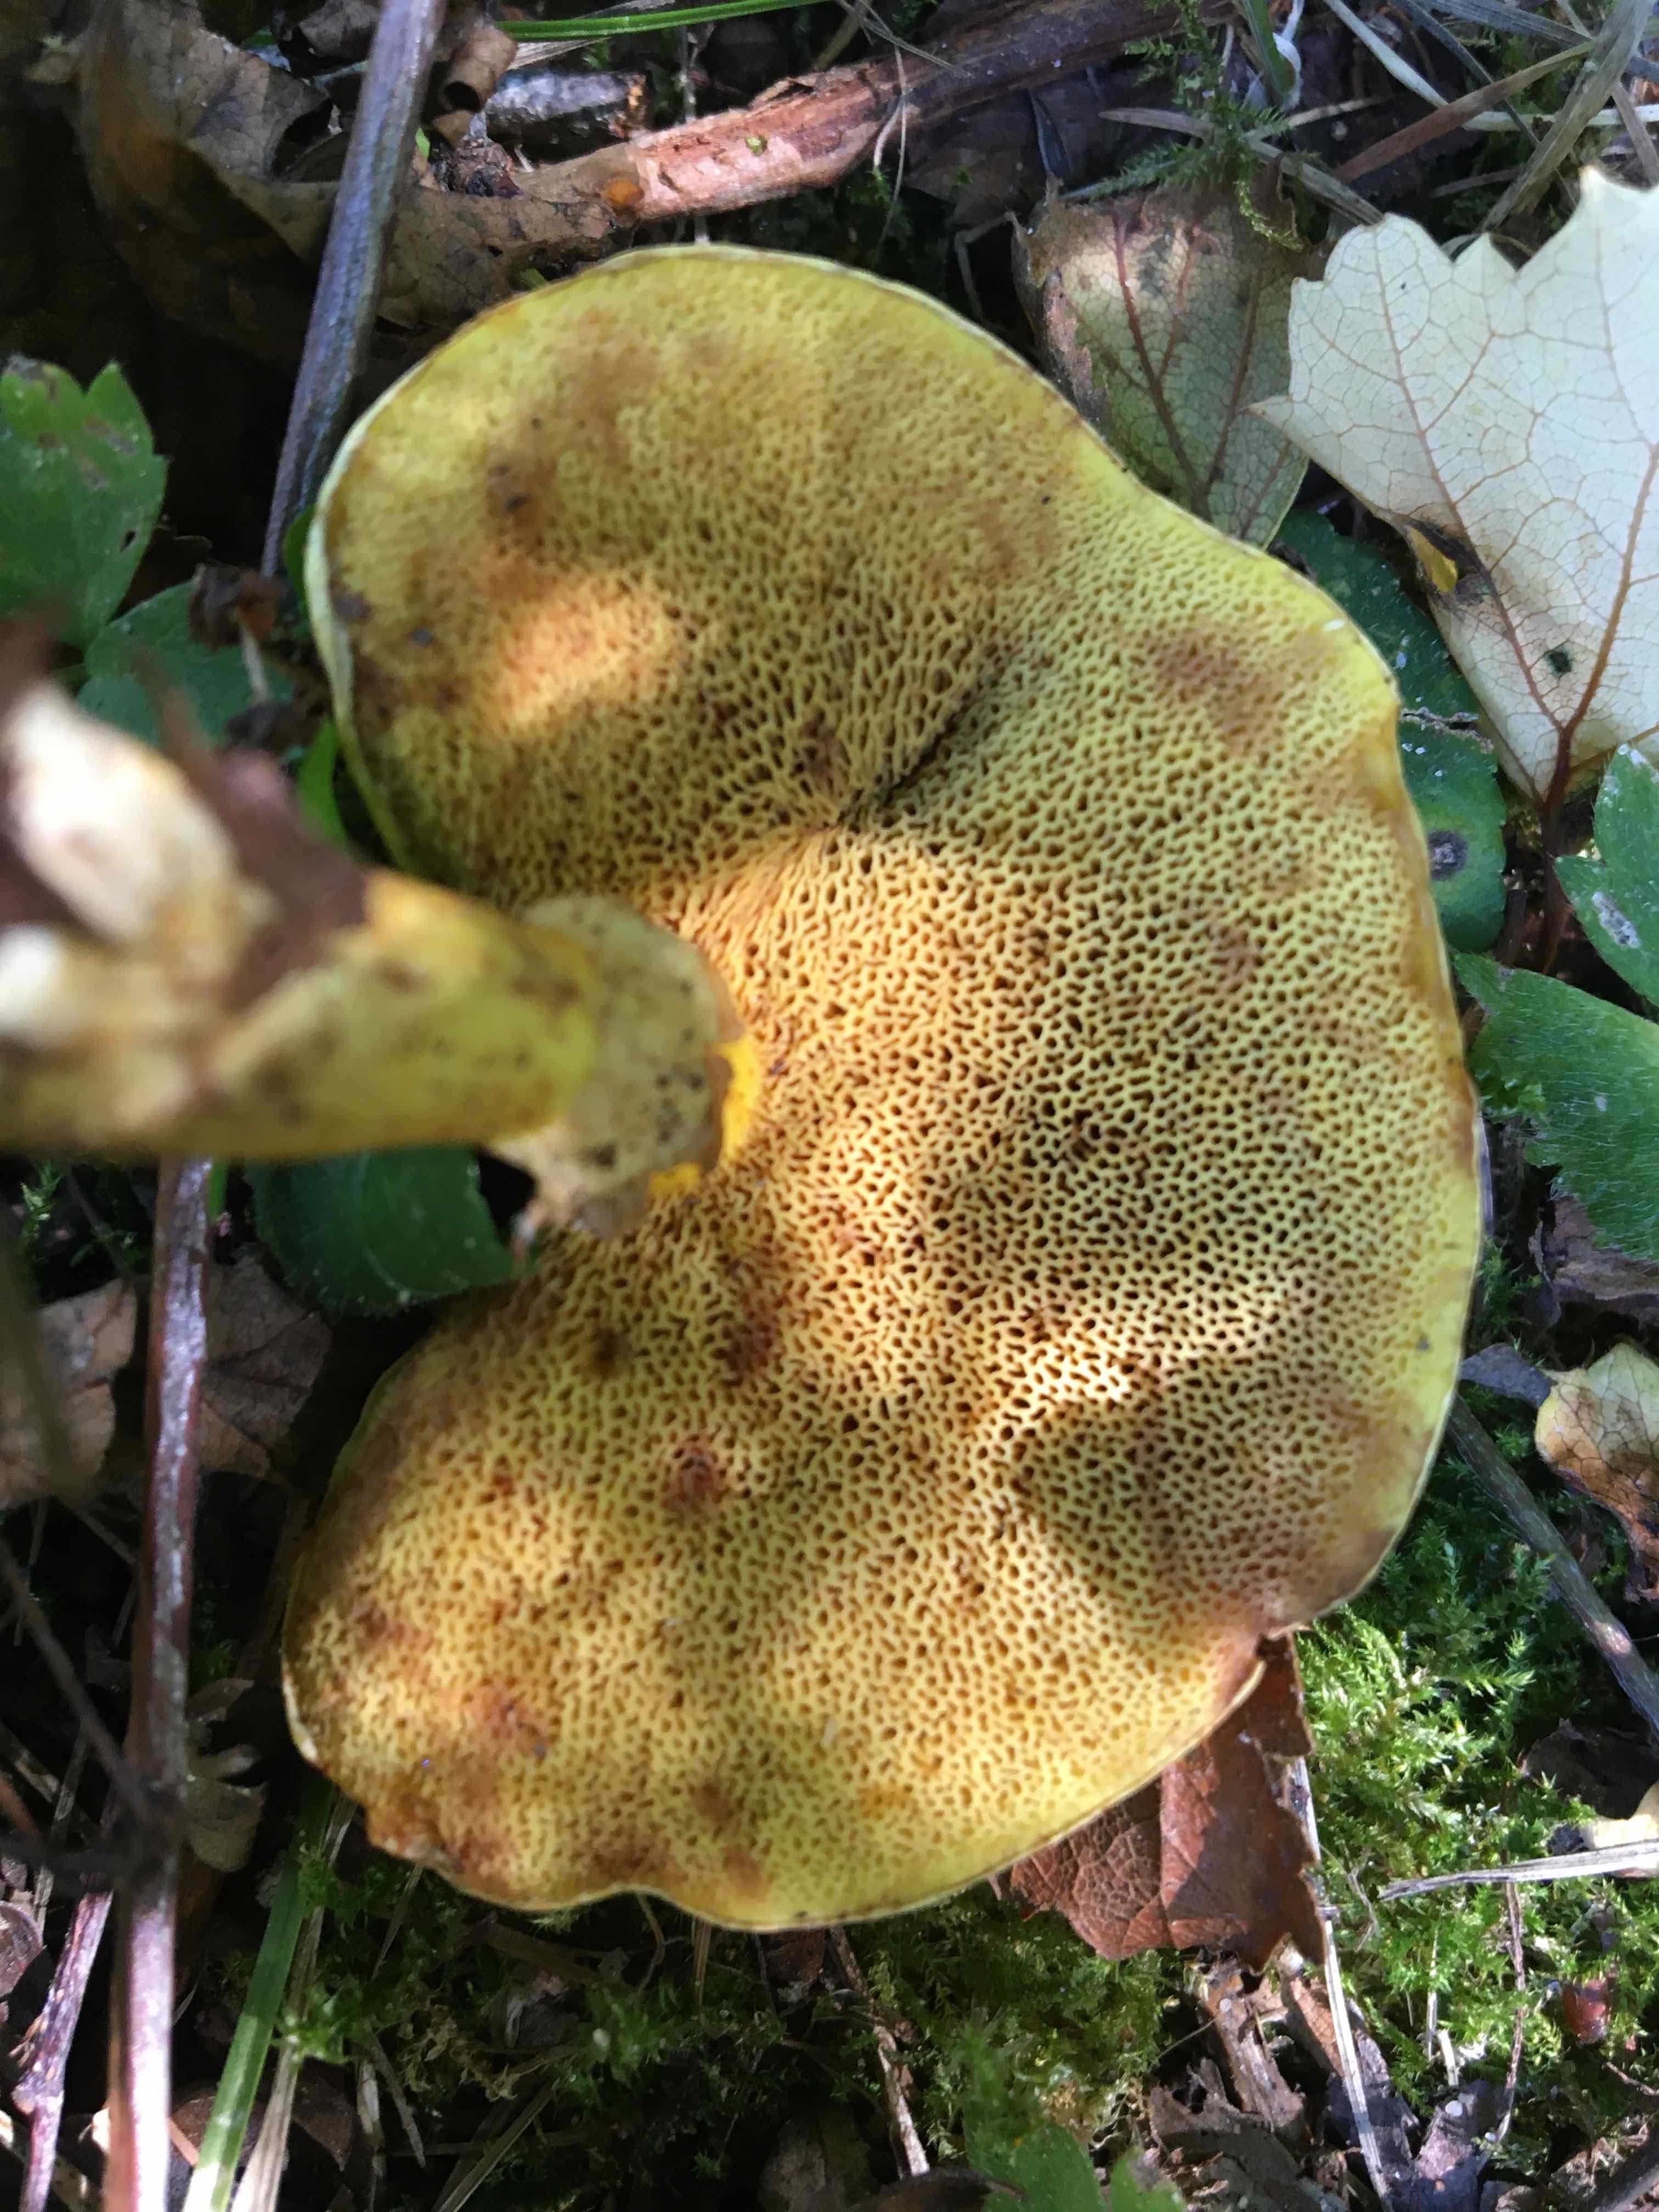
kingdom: Fungi
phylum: Basidiomycota
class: Agaricomycetes
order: Boletales
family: Suillaceae
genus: Suillus
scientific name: Suillus grevillei
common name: lærke-slimrørhat
